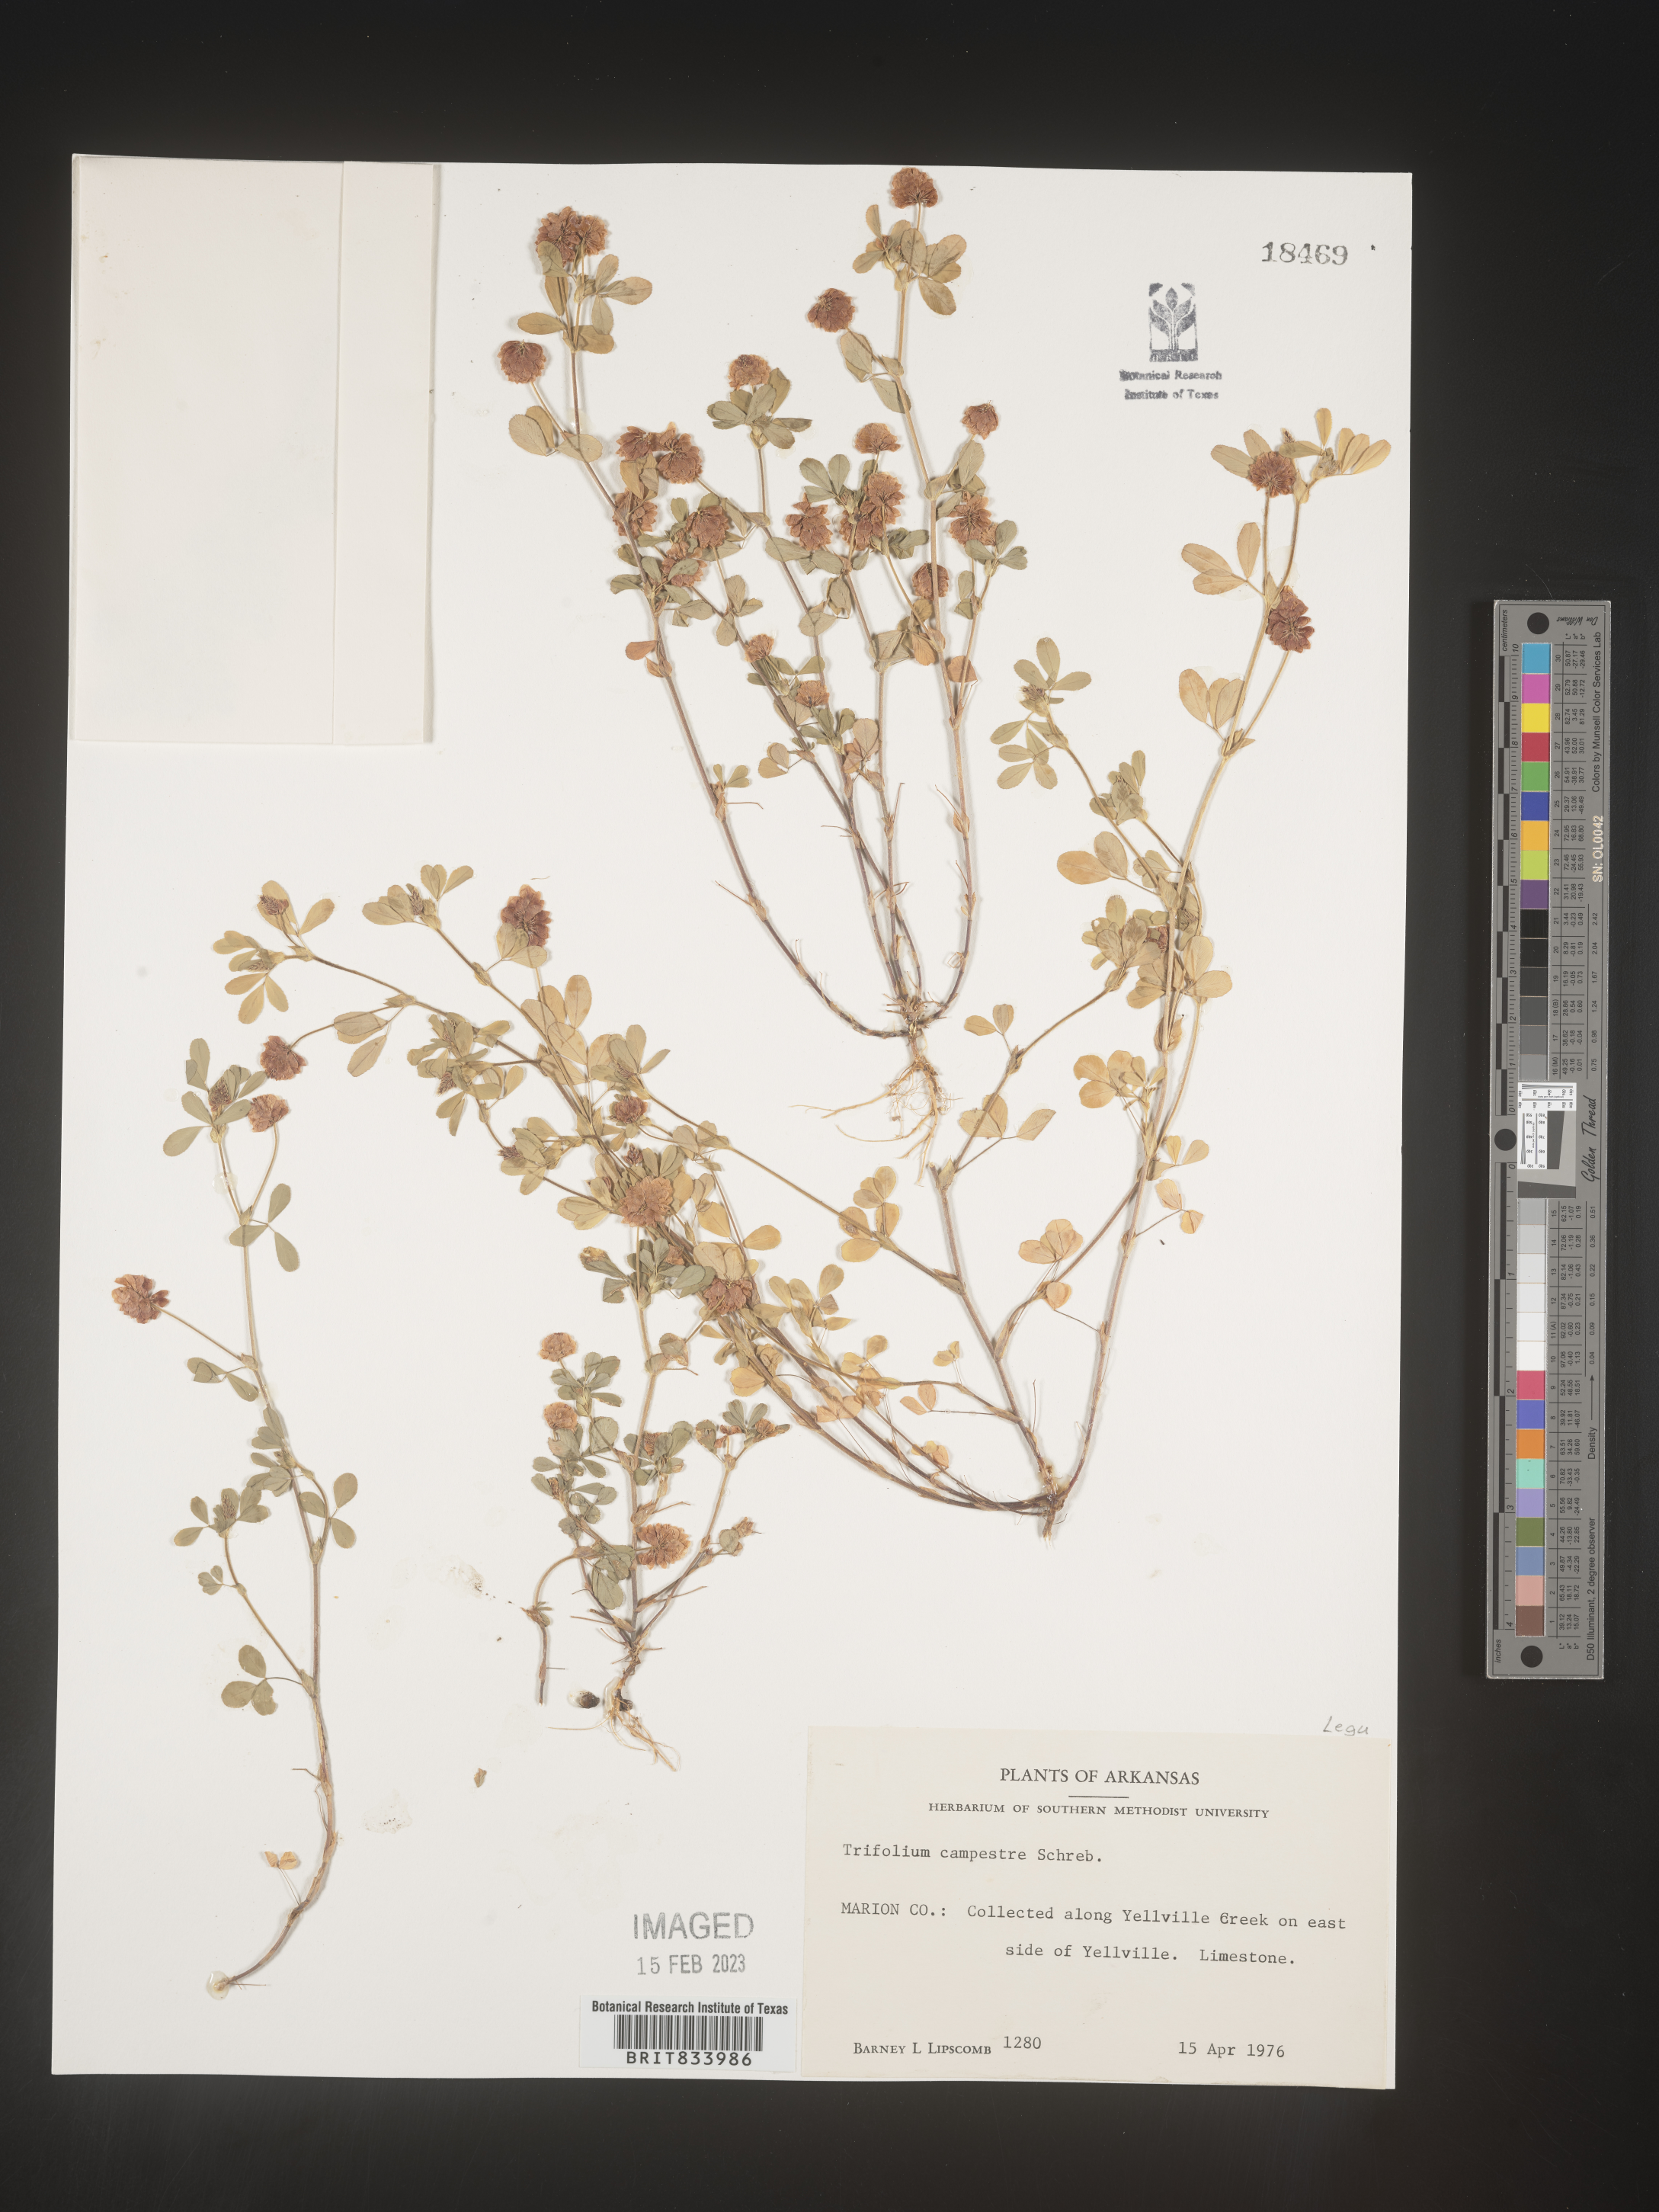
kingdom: Plantae
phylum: Tracheophyta
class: Magnoliopsida
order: Fabales
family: Fabaceae
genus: Trifolium
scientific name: Trifolium campestre
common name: Field clover
